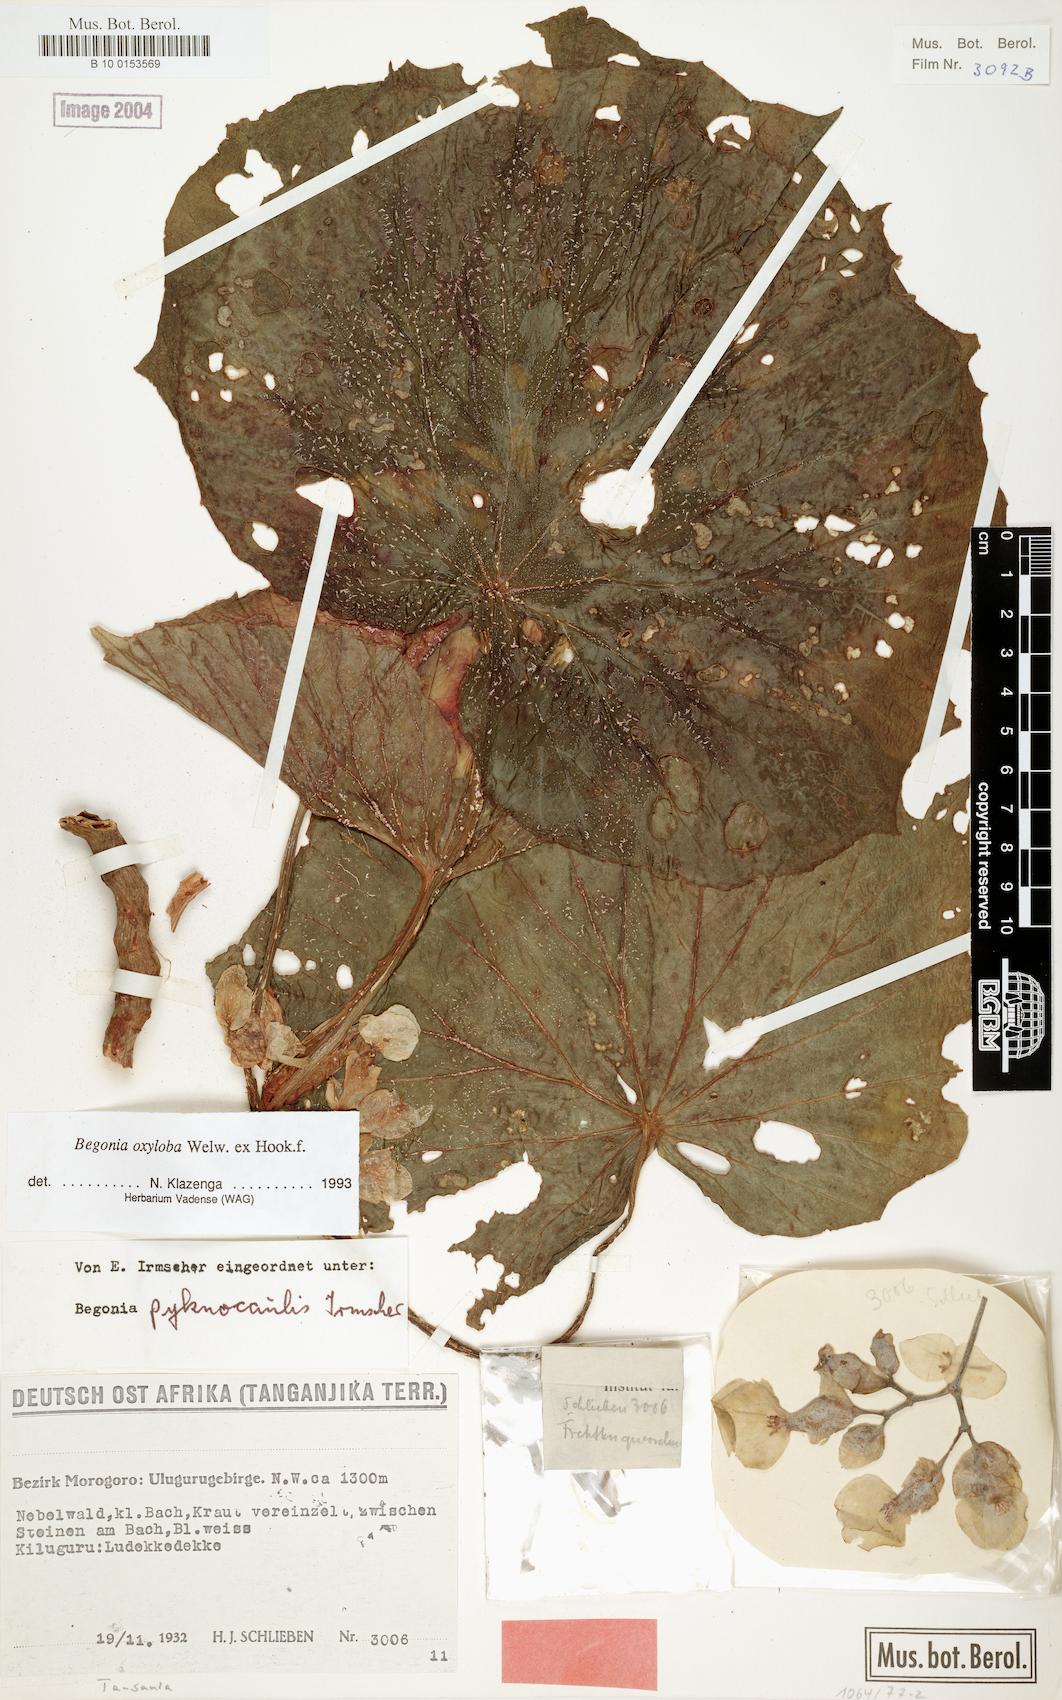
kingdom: Plantae
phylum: Tracheophyta
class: Magnoliopsida
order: Cucurbitales
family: Begoniaceae
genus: Begonia
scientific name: Begonia oxyloba
